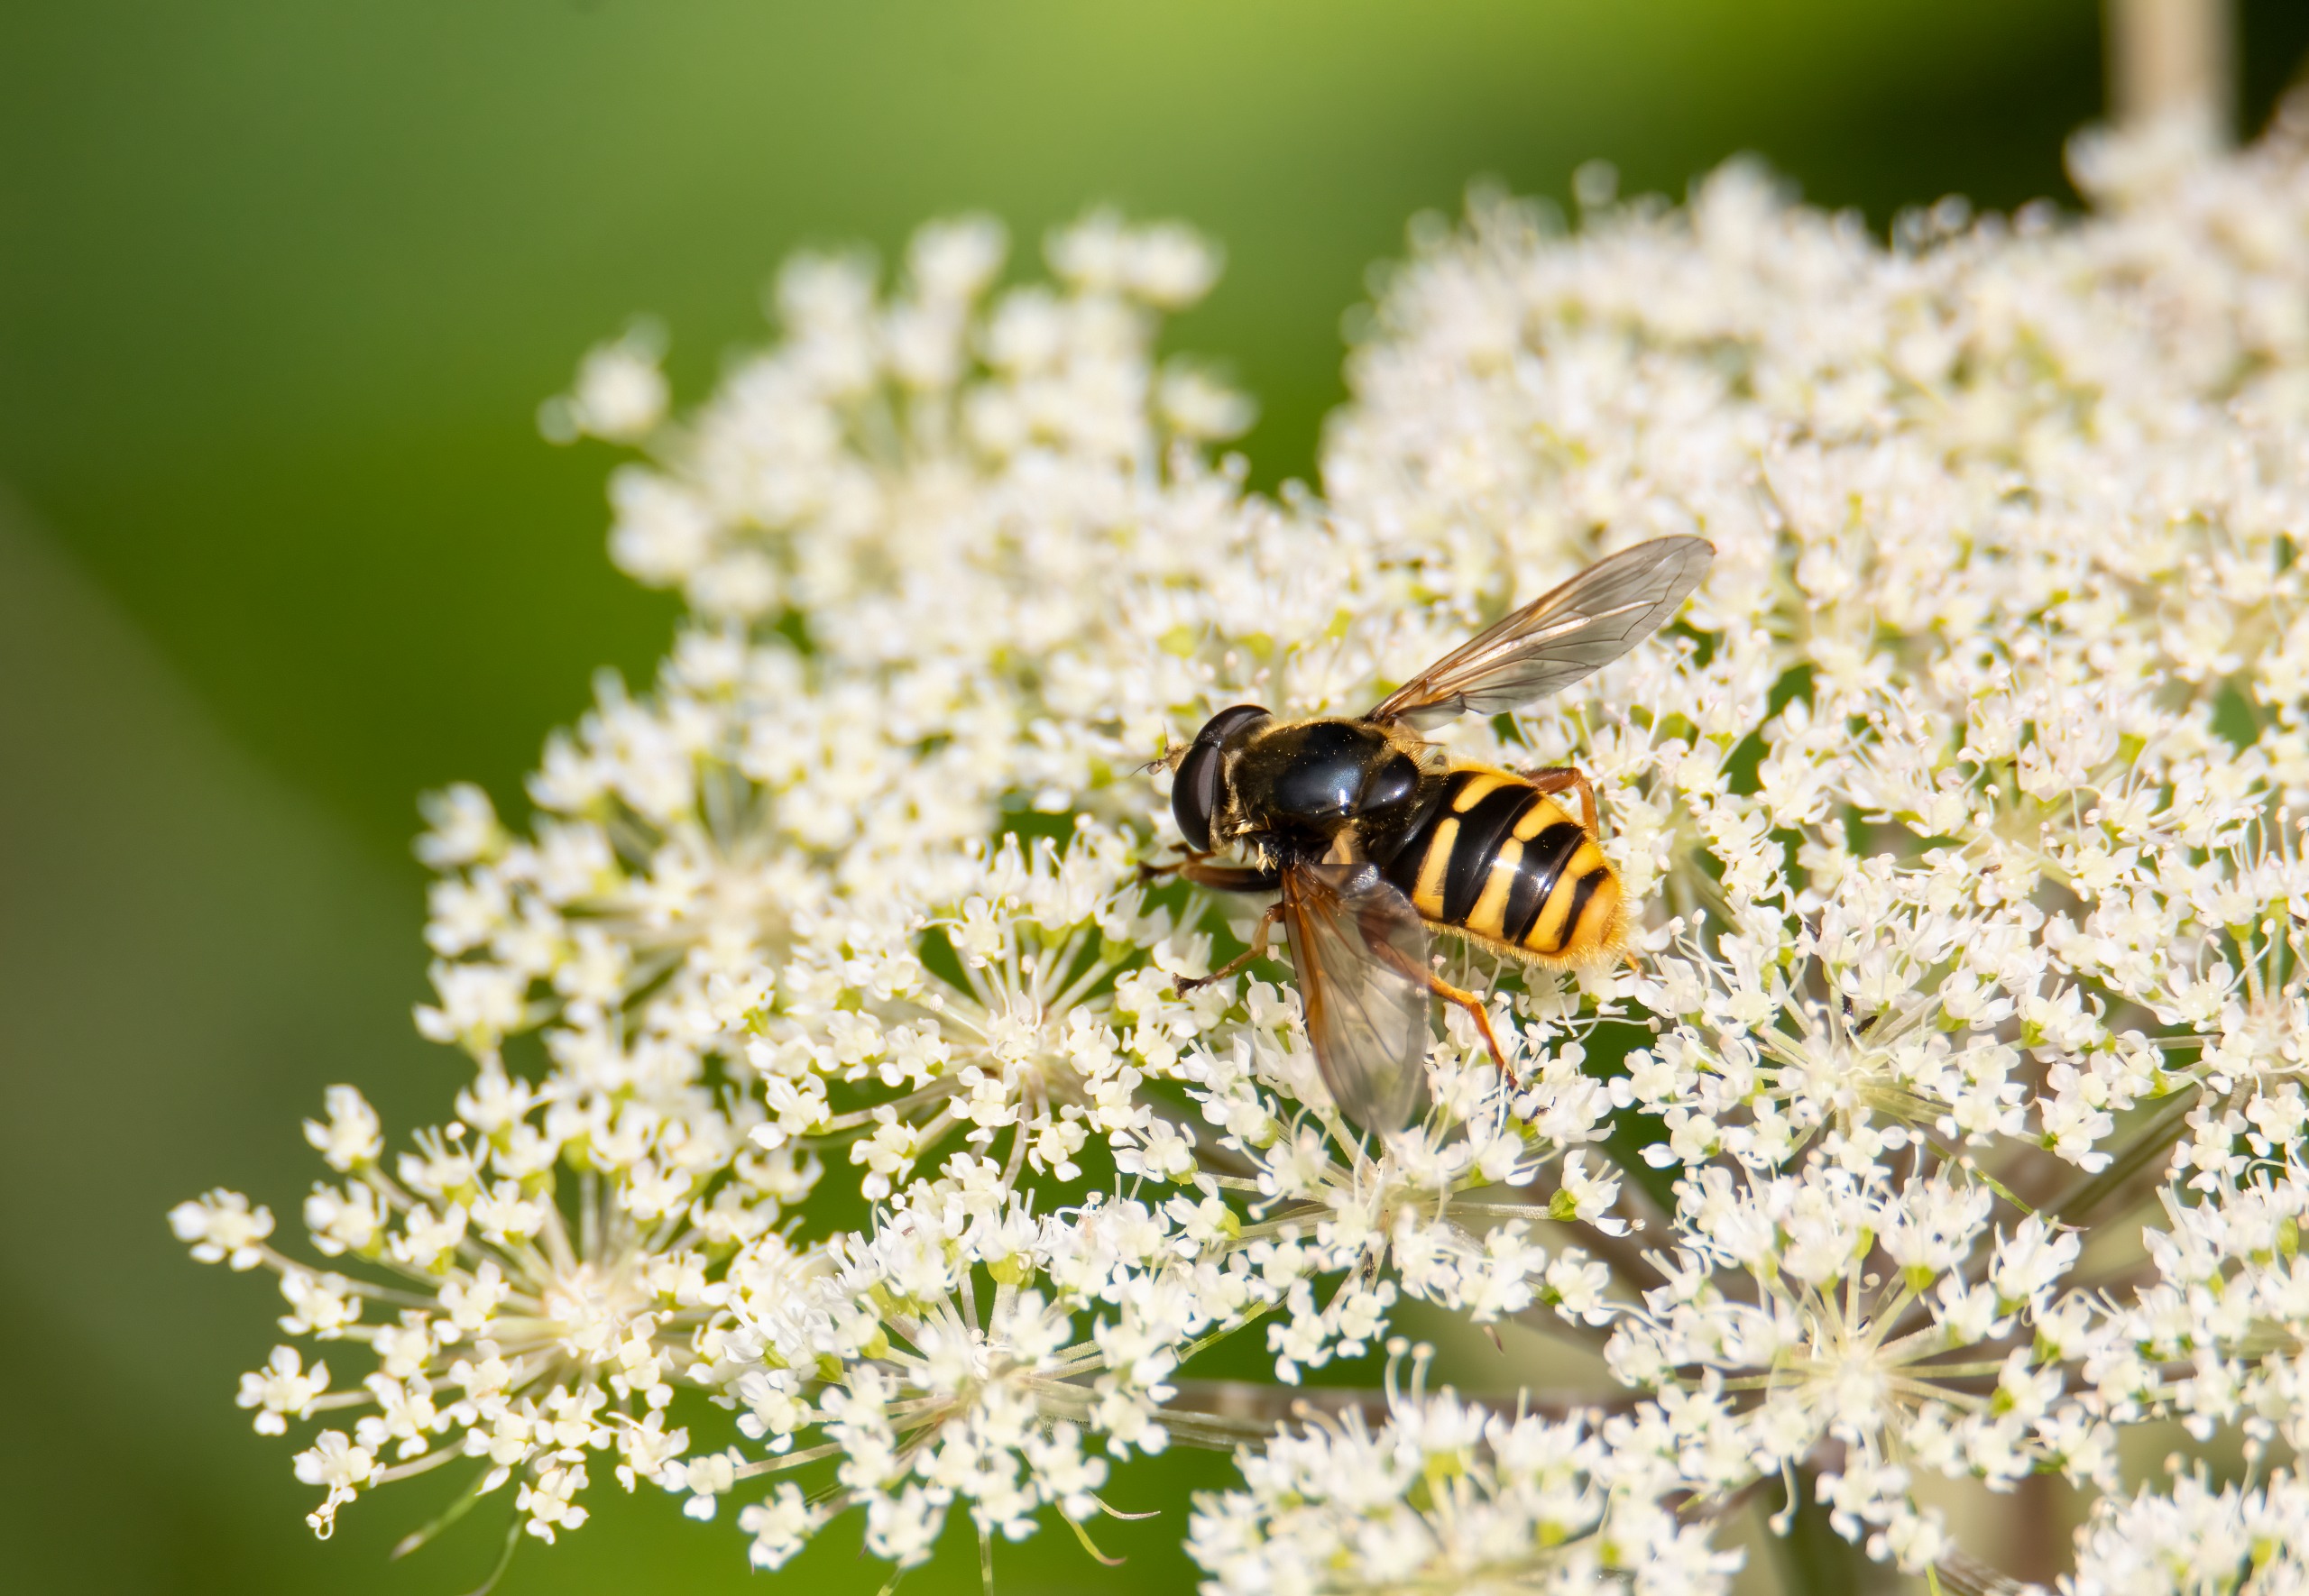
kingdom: Animalia
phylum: Arthropoda
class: Insecta
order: Diptera
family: Syrphidae
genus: Sericomyia
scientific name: Sericomyia silentis
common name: Tørve-silkesvirreflue
